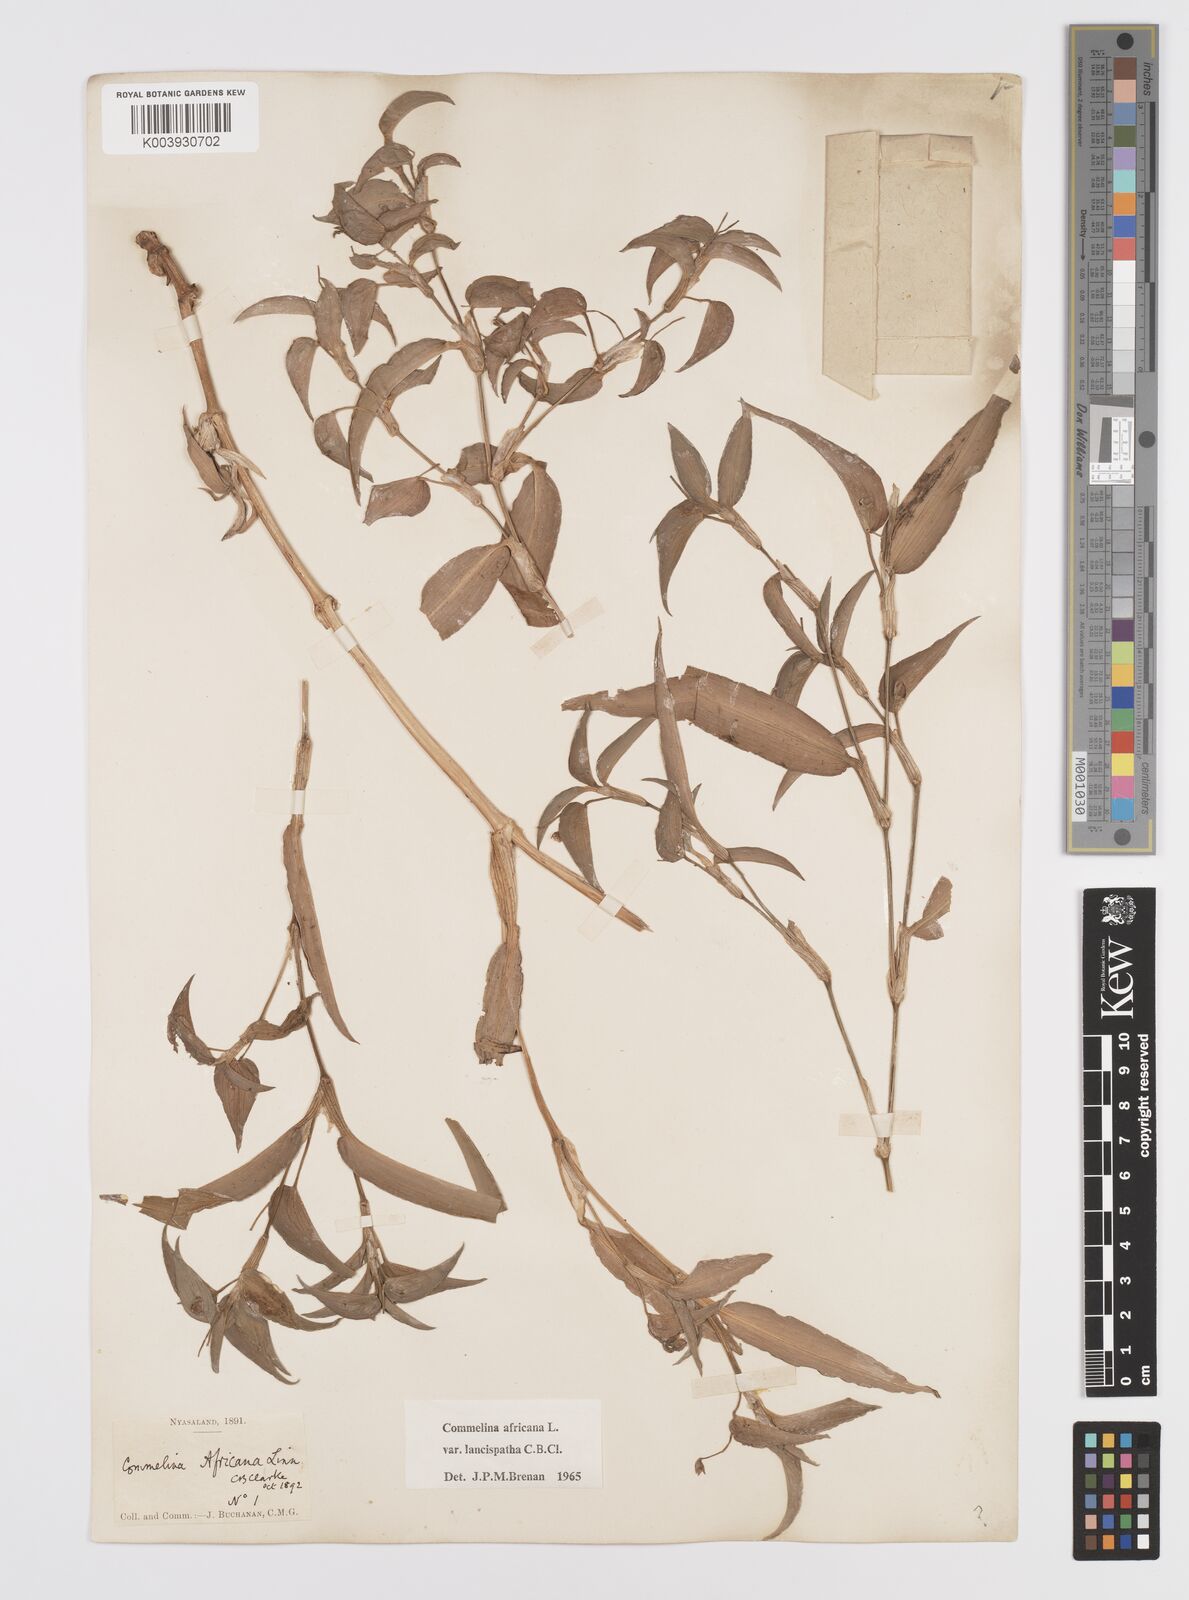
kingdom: Plantae
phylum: Tracheophyta
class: Liliopsida
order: Commelinales
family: Commelinaceae
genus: Commelina
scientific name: Commelina africana
